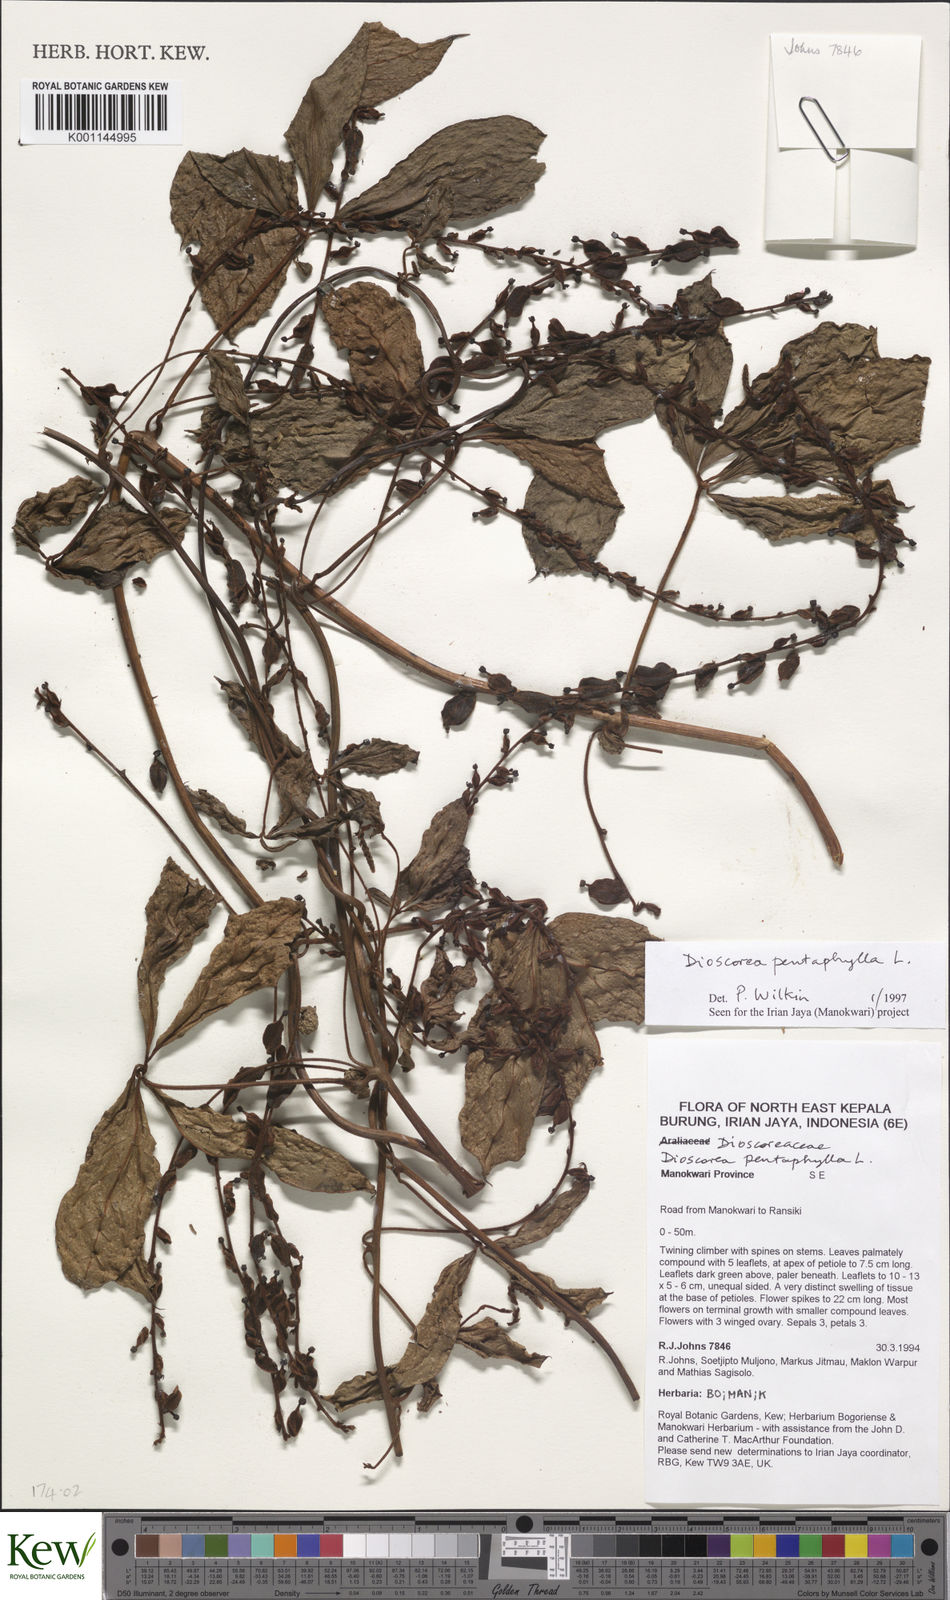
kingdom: Plantae
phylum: Tracheophyta
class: Liliopsida
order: Dioscoreales
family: Dioscoreaceae
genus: Dioscorea
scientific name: Dioscorea pentaphylla
